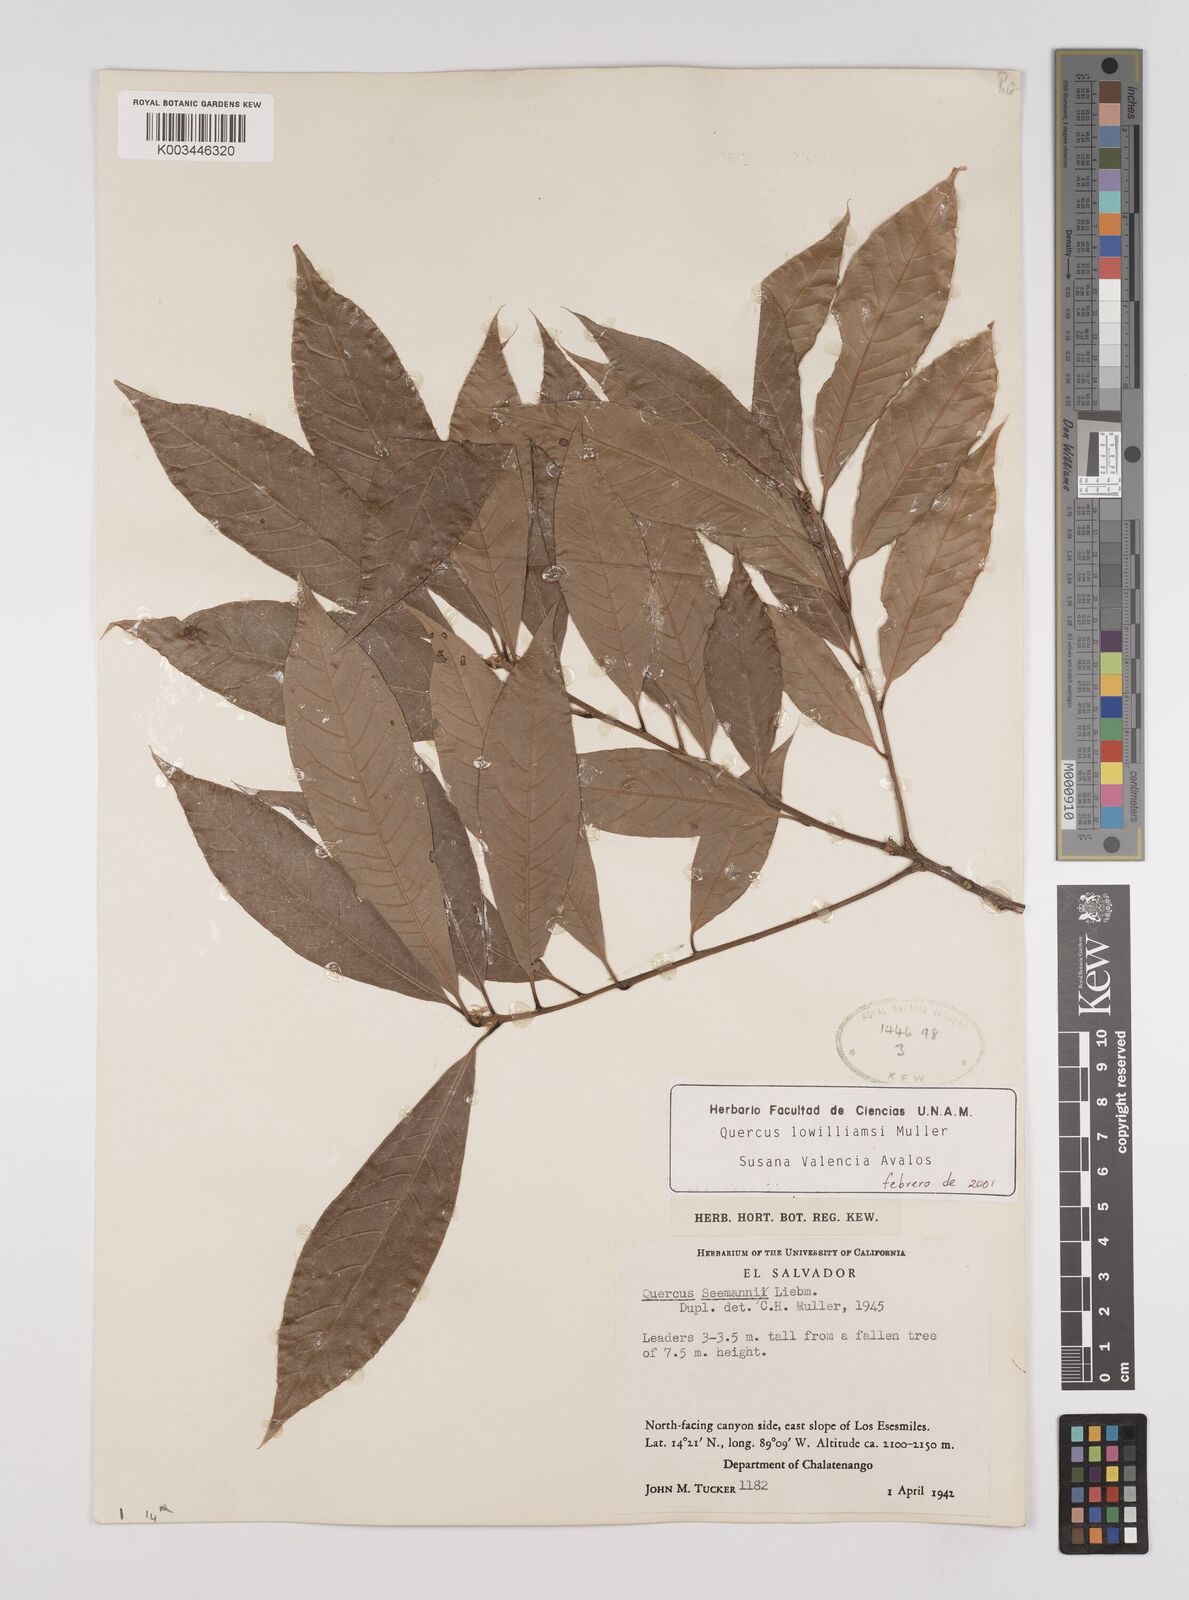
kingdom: Plantae
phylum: Tracheophyta
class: Magnoliopsida
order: Fagales
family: Fagaceae
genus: Quercus
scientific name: Quercus benthamii
